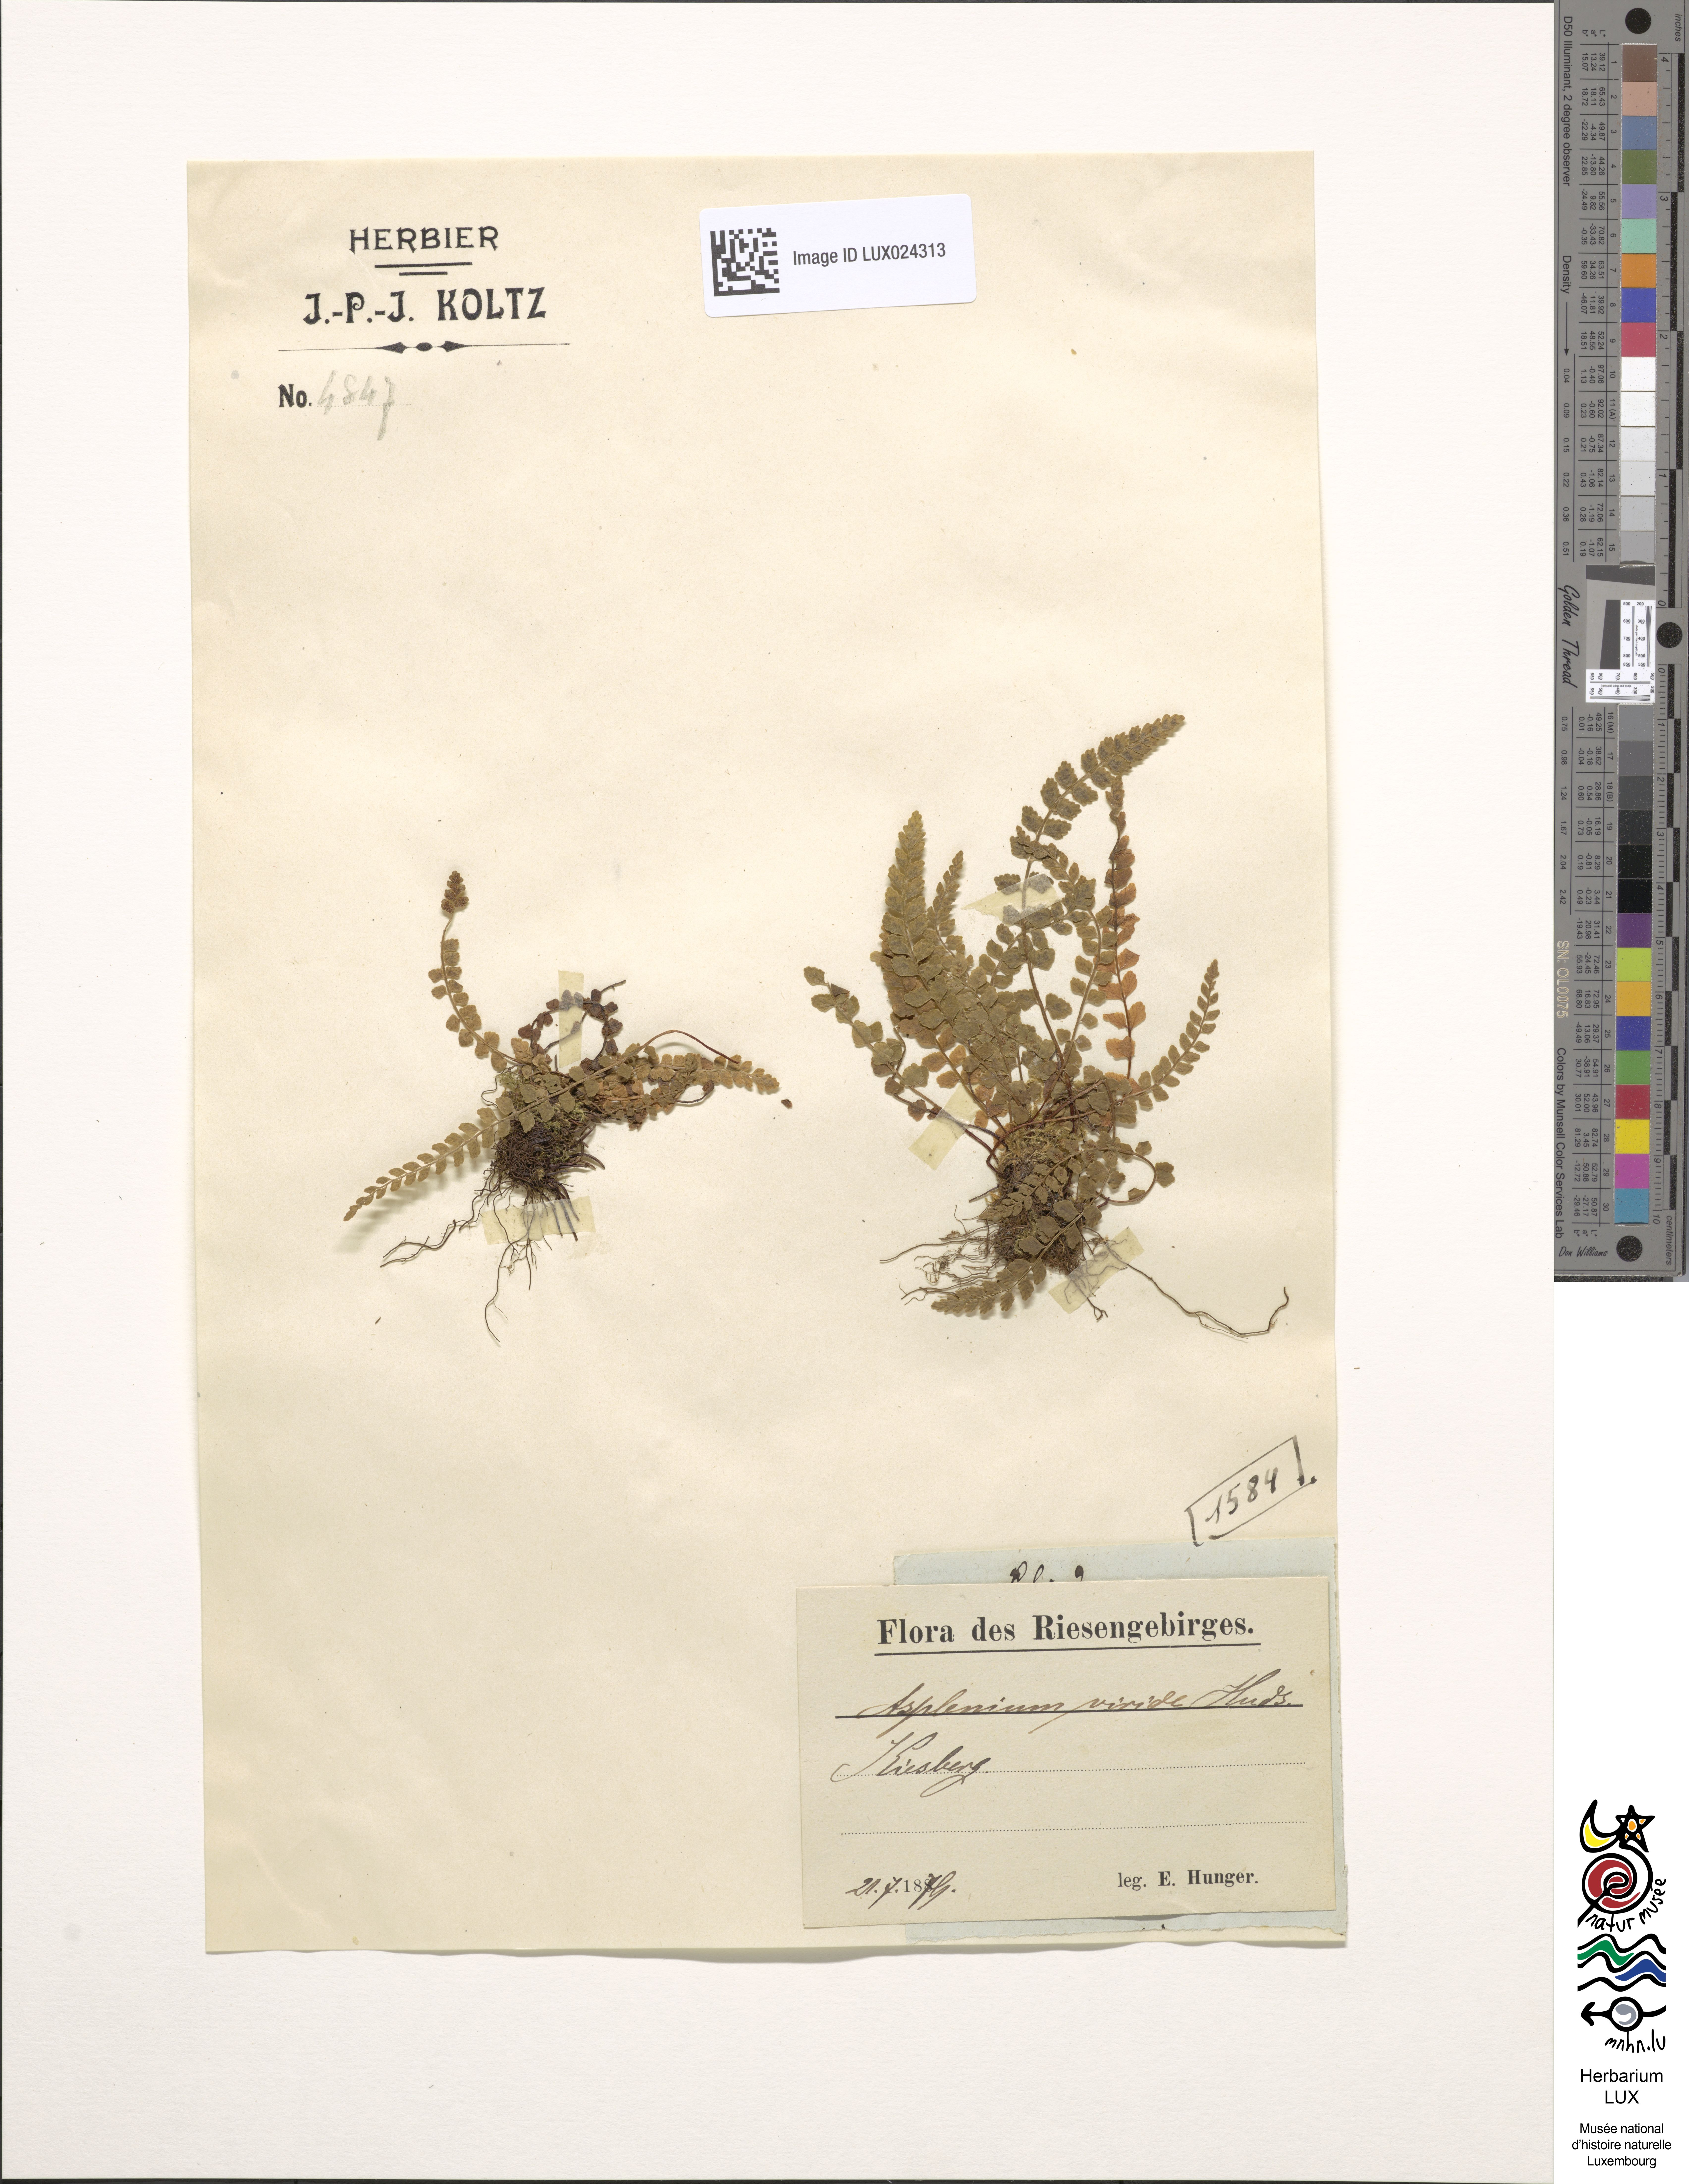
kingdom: Plantae
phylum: Tracheophyta
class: Polypodiopsida
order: Polypodiales
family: Aspleniaceae
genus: Asplenium
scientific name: Asplenium viride
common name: Green spleenwort
